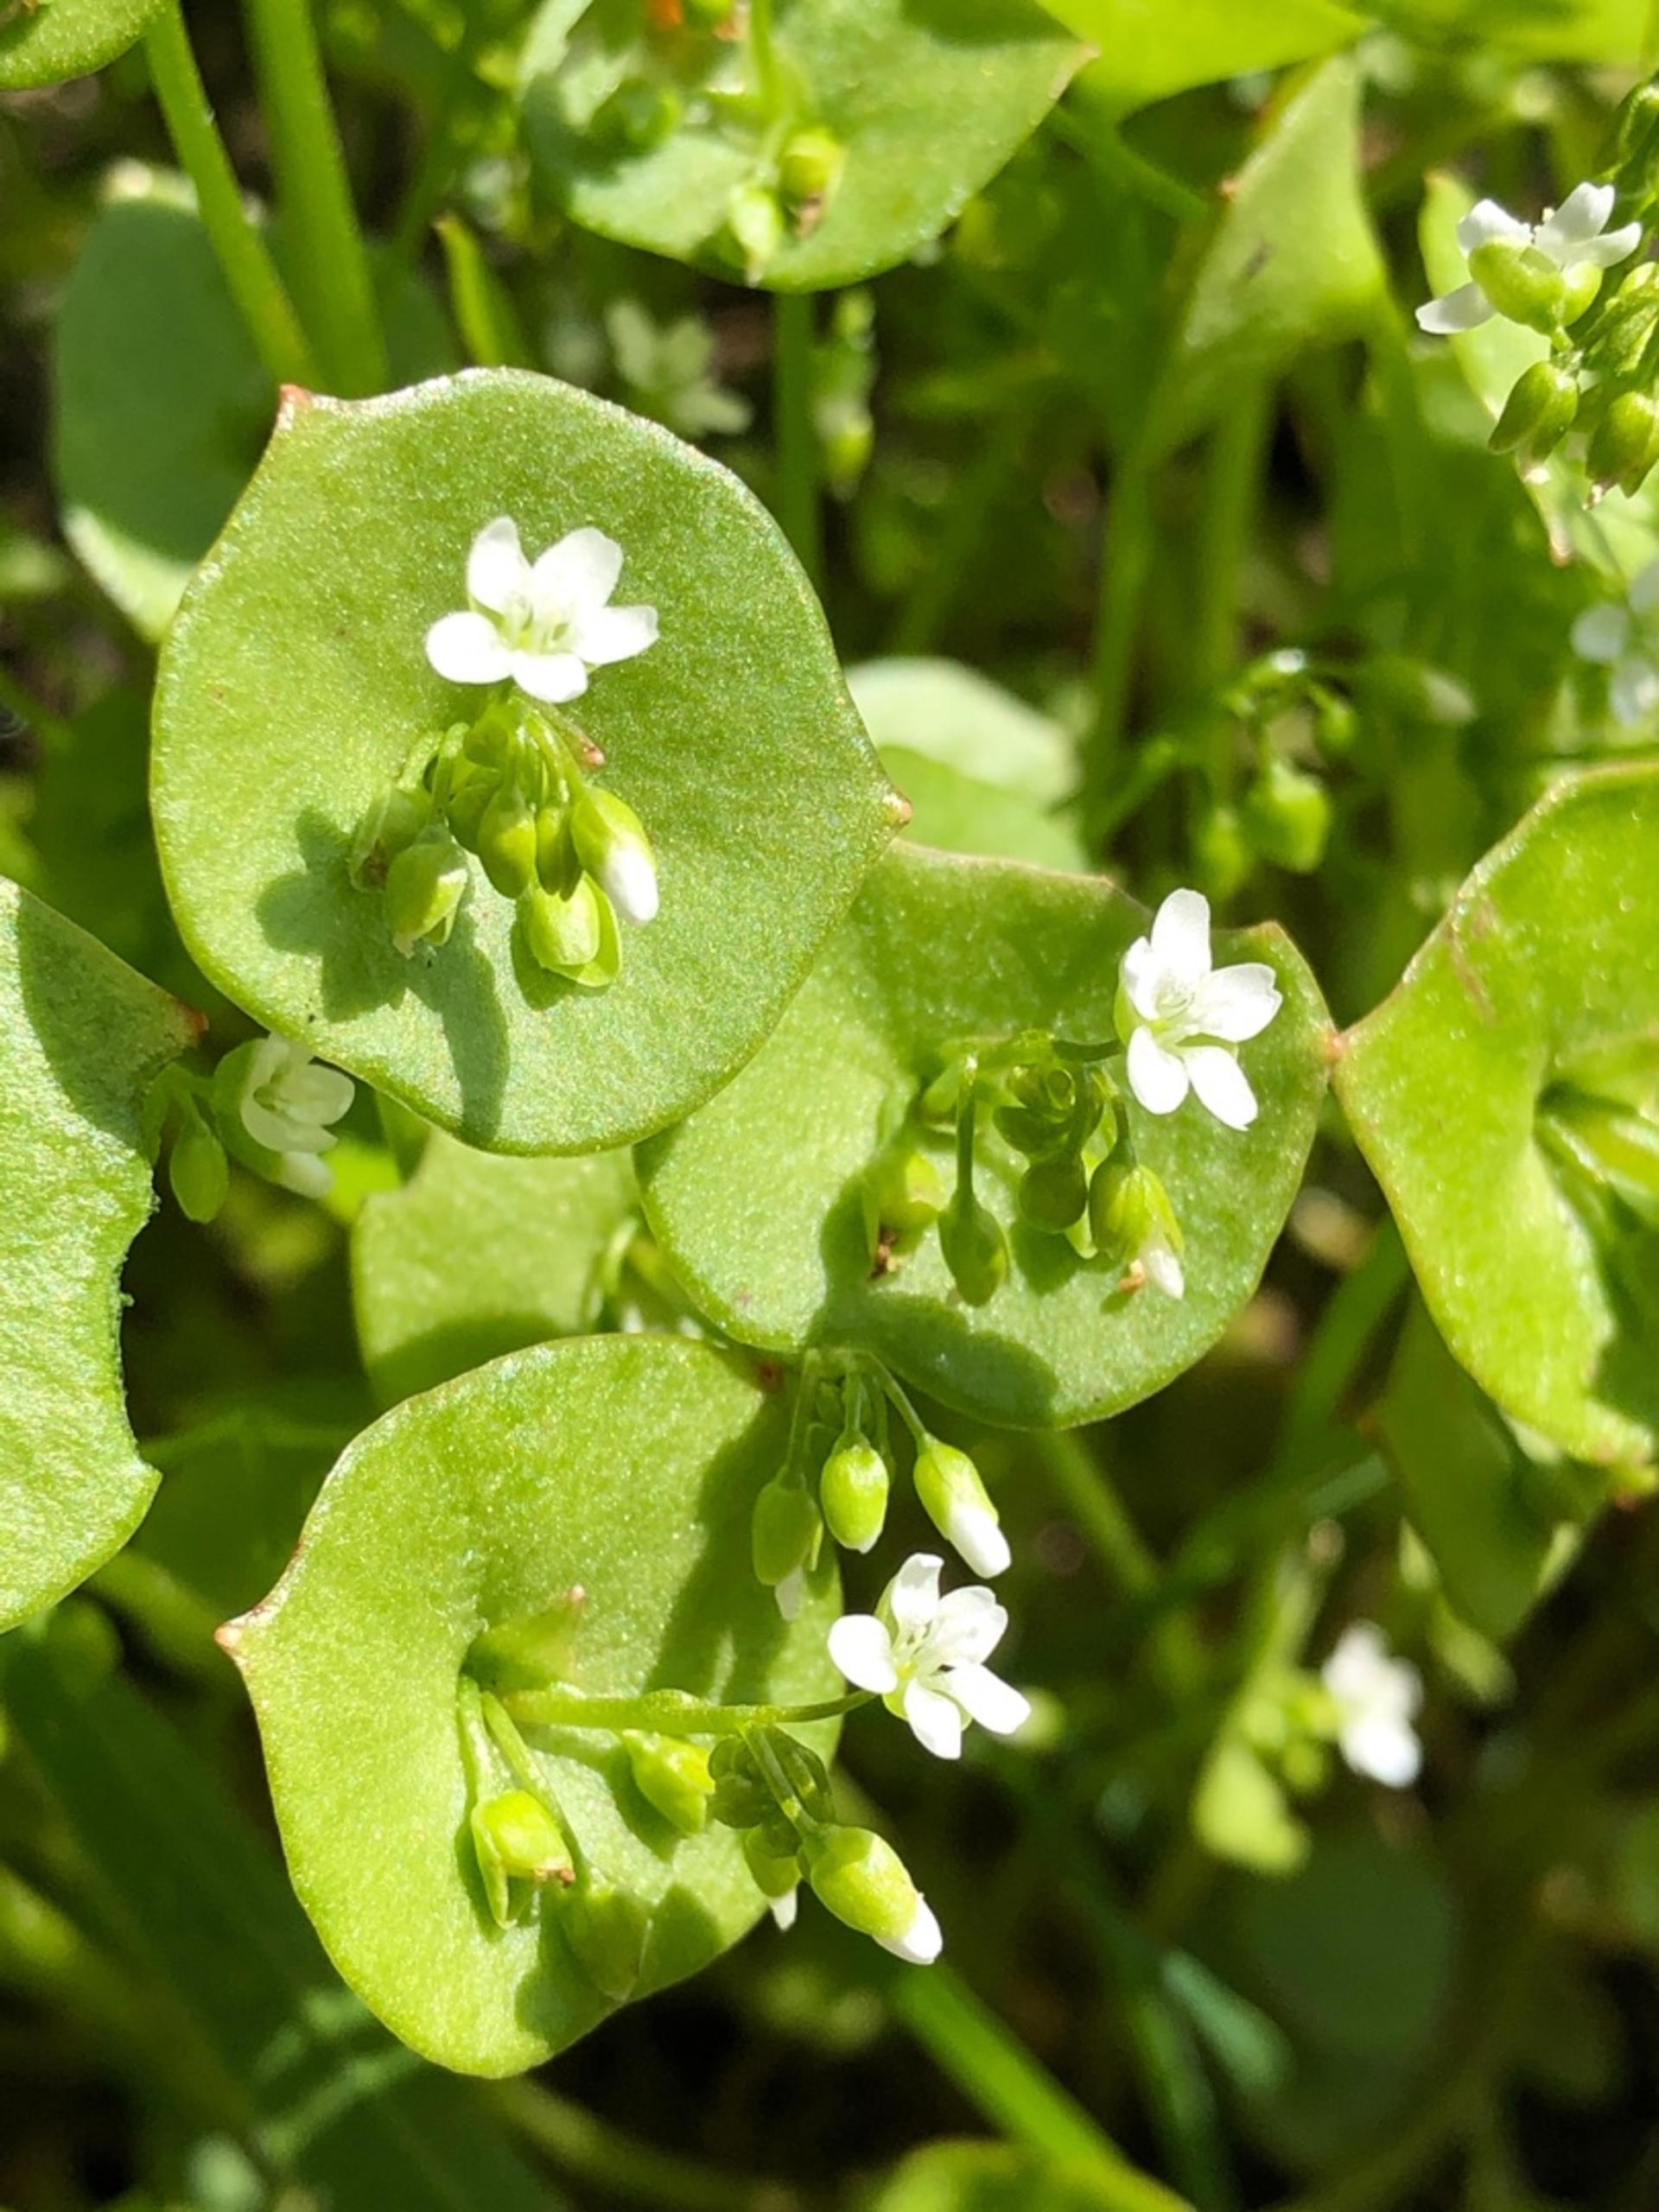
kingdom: Plantae
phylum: Tracheophyta
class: Magnoliopsida
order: Caryophyllales
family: Montiaceae
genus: Claytonia
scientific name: Claytonia perfoliata
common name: Spiselig vinterportulak
